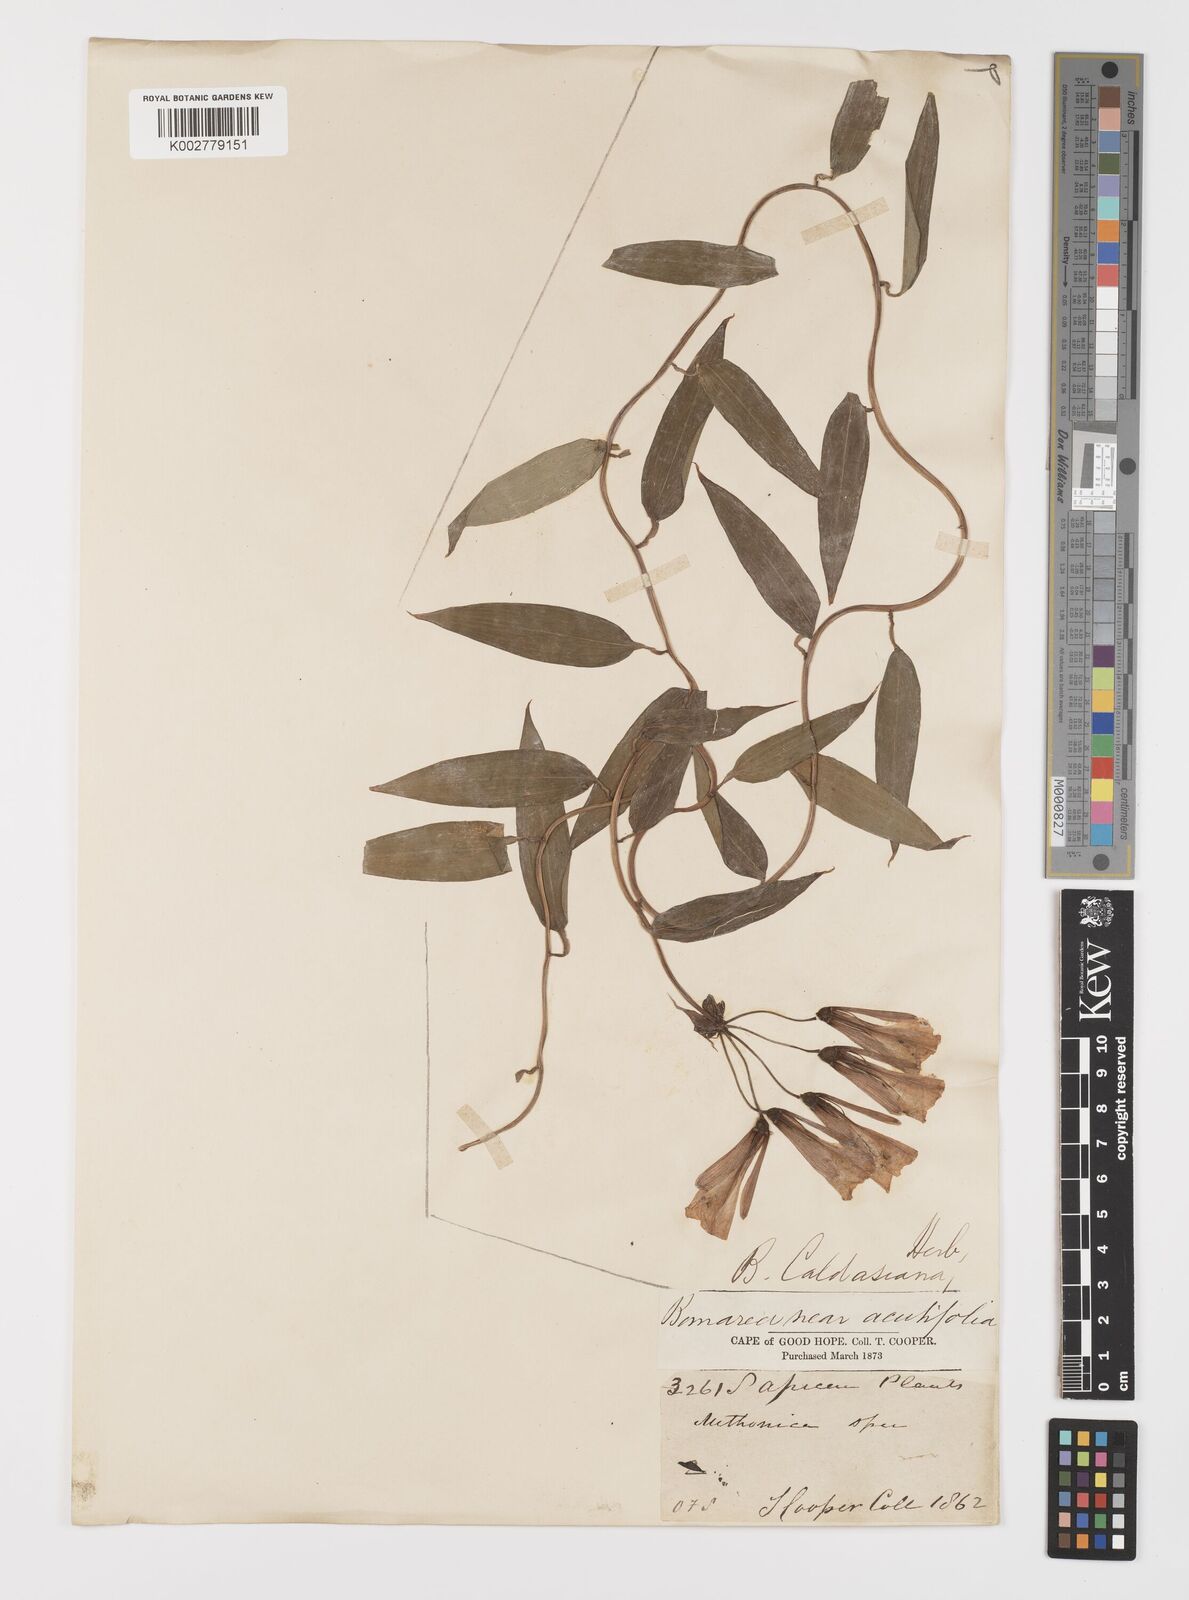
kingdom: Plantae
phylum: Tracheophyta
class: Liliopsida
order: Liliales
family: Alstroemeriaceae
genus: Bomarea
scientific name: Bomarea multiflora
